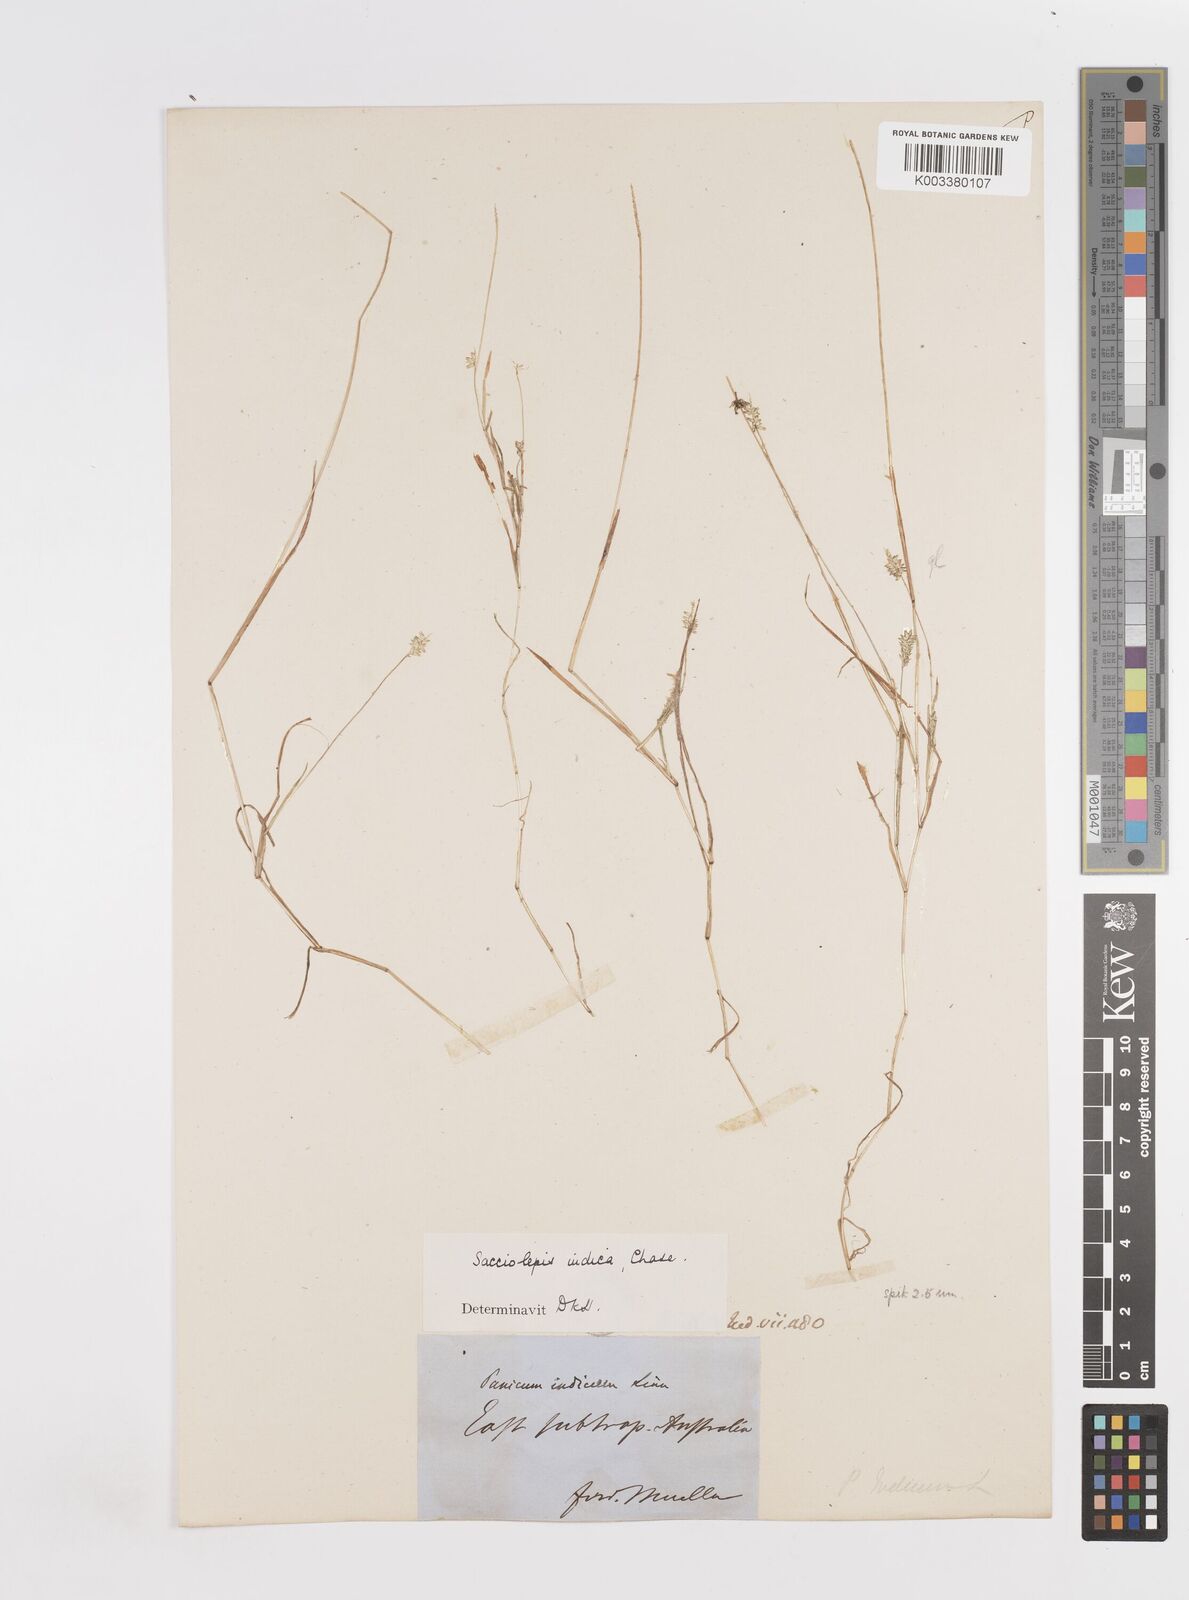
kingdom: Plantae
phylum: Tracheophyta
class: Liliopsida
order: Poales
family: Poaceae
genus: Sacciolepis
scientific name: Sacciolepis indica
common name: Glenwoodgrass
